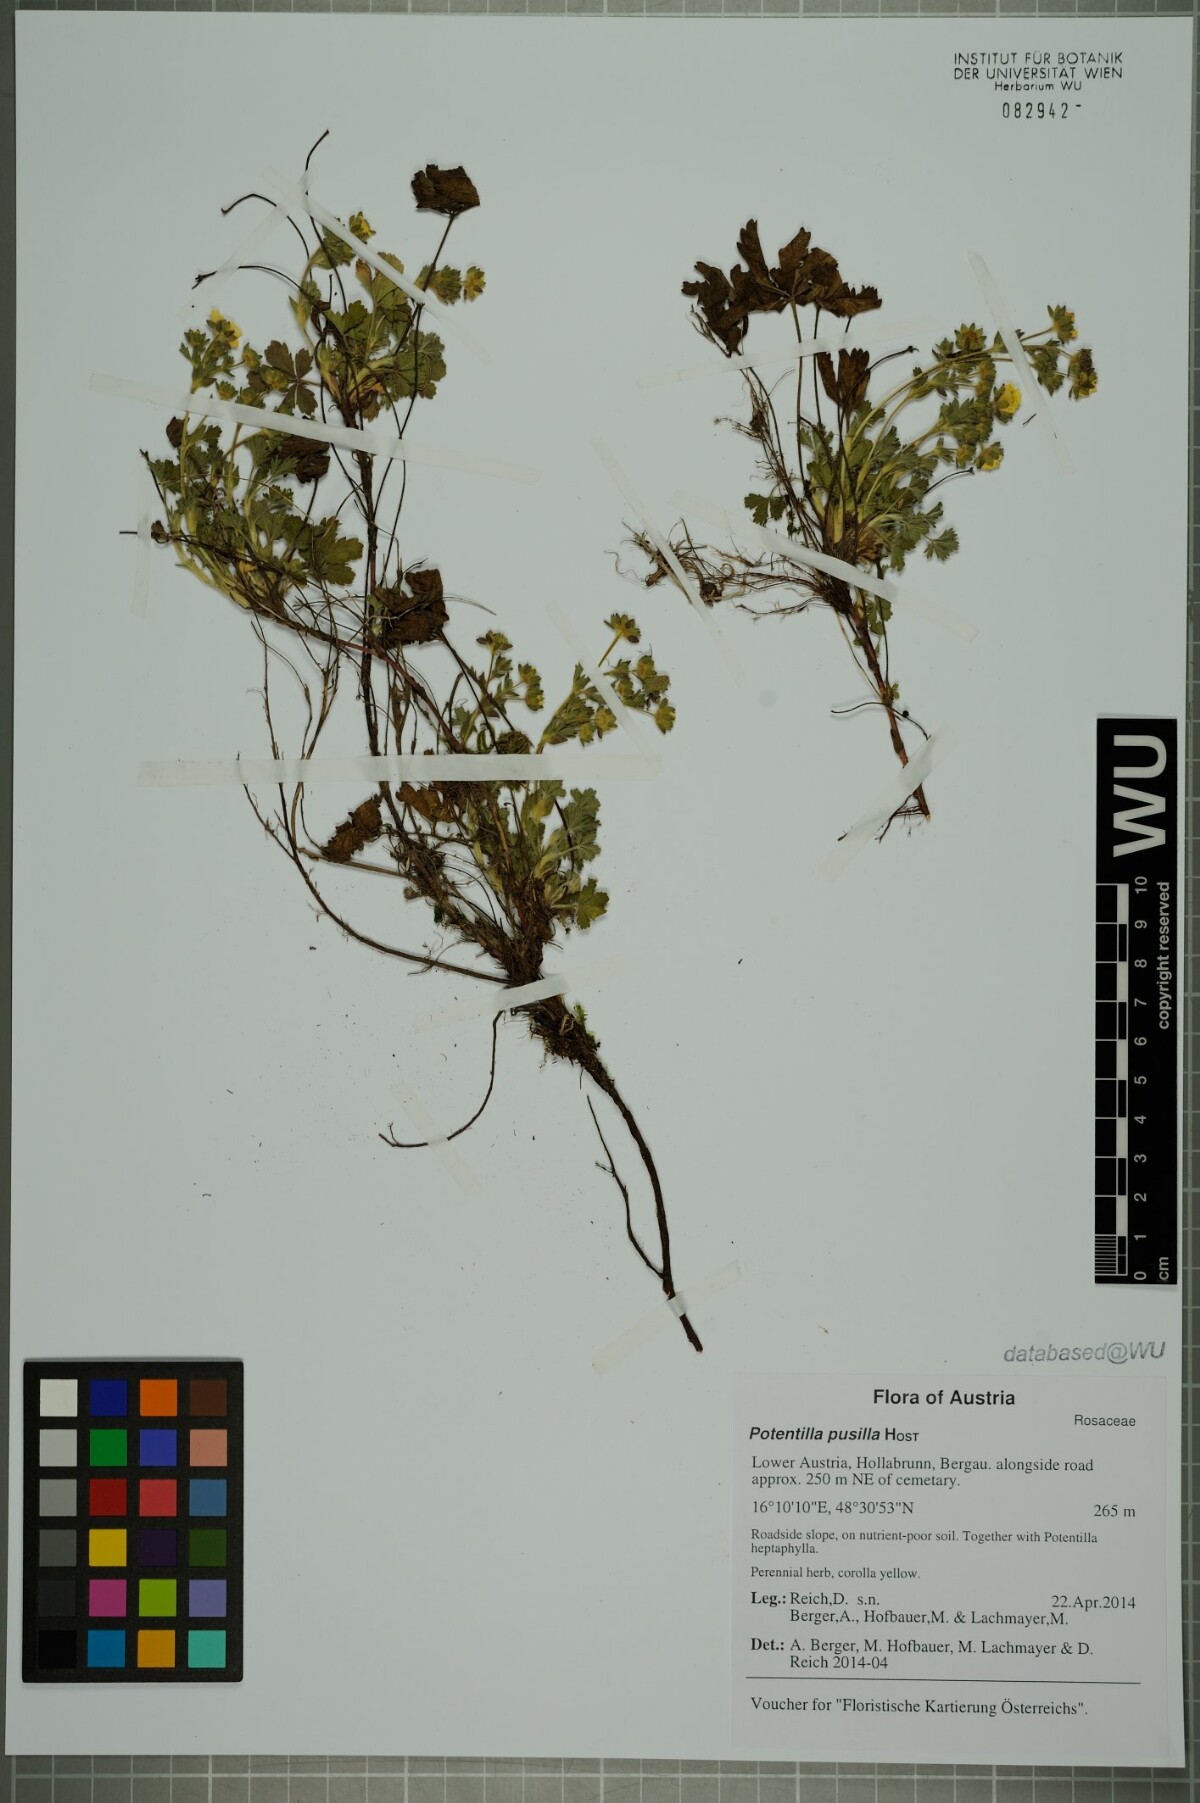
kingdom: Plantae
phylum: Tracheophyta
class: Magnoliopsida
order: Rosales
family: Rosaceae
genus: Potentilla
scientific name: Potentilla pusilla
